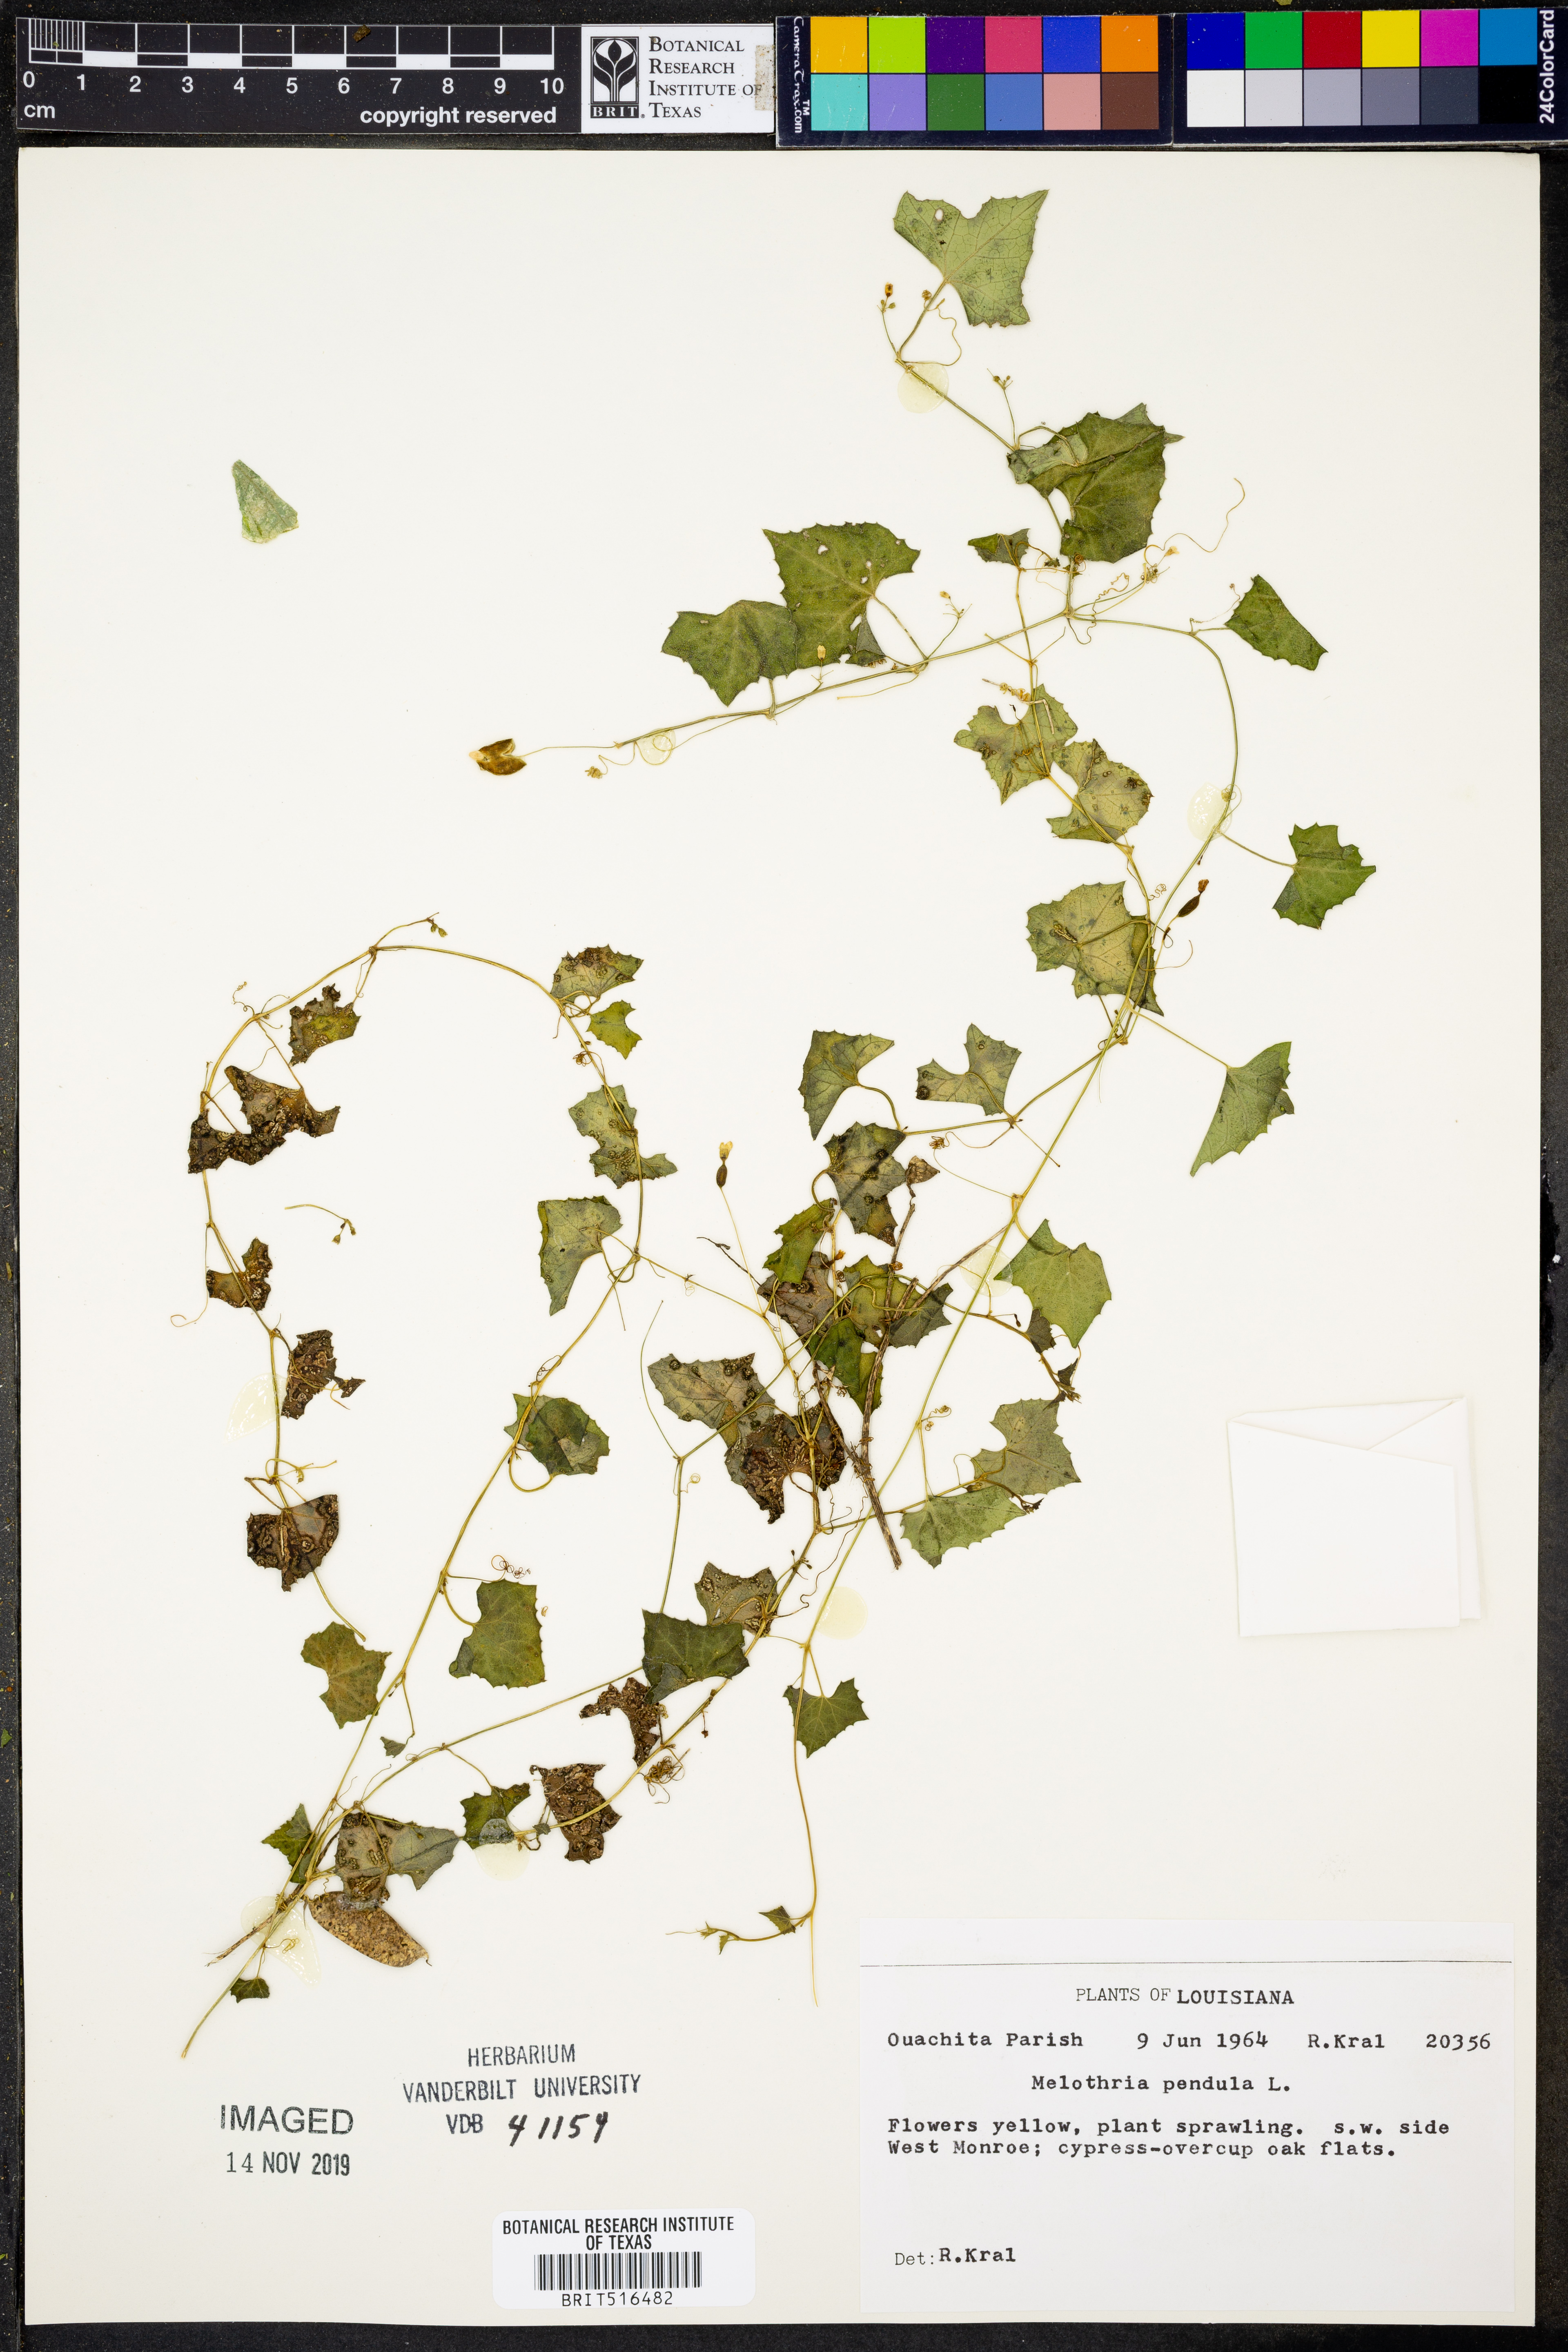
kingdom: Plantae
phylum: Tracheophyta
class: Magnoliopsida
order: Cucurbitales
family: Cucurbitaceae
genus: Melothria
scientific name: Melothria pendula
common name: Creeping-cucumber
